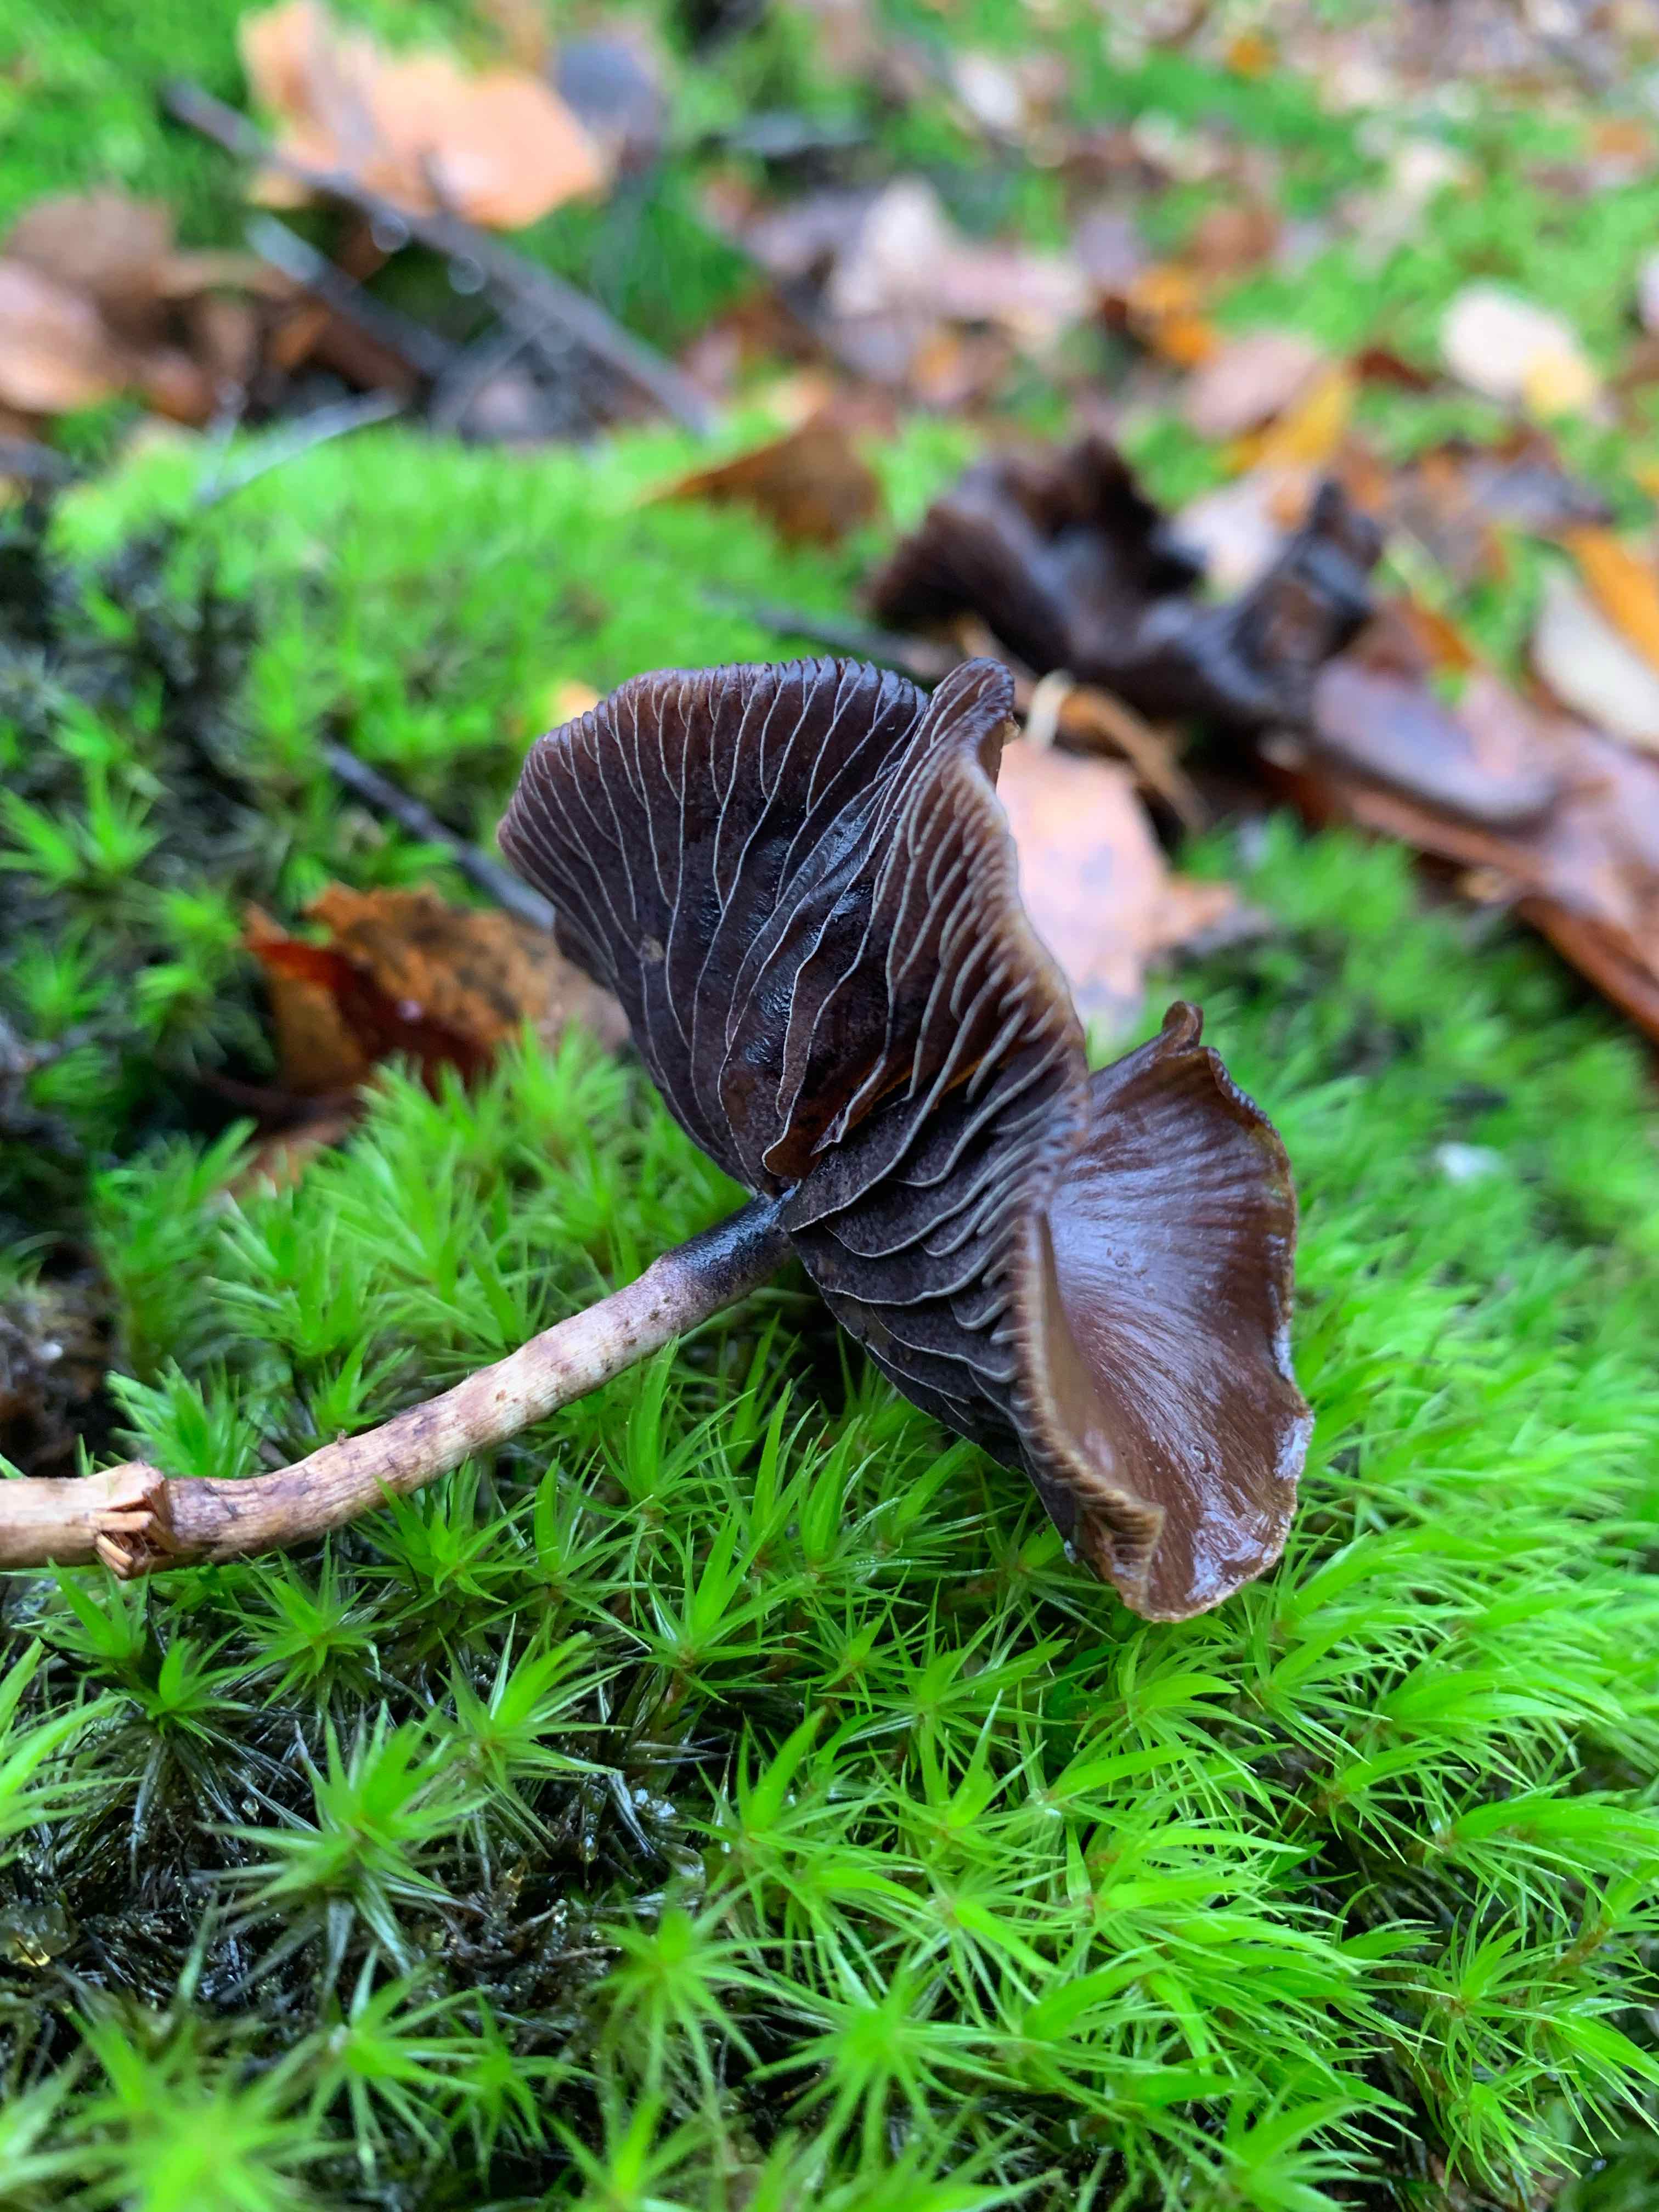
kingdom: Fungi
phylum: Basidiomycota
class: Agaricomycetes
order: Agaricales
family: Hymenogastraceae
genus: Psilocybe
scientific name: Psilocybe fuscofulva
